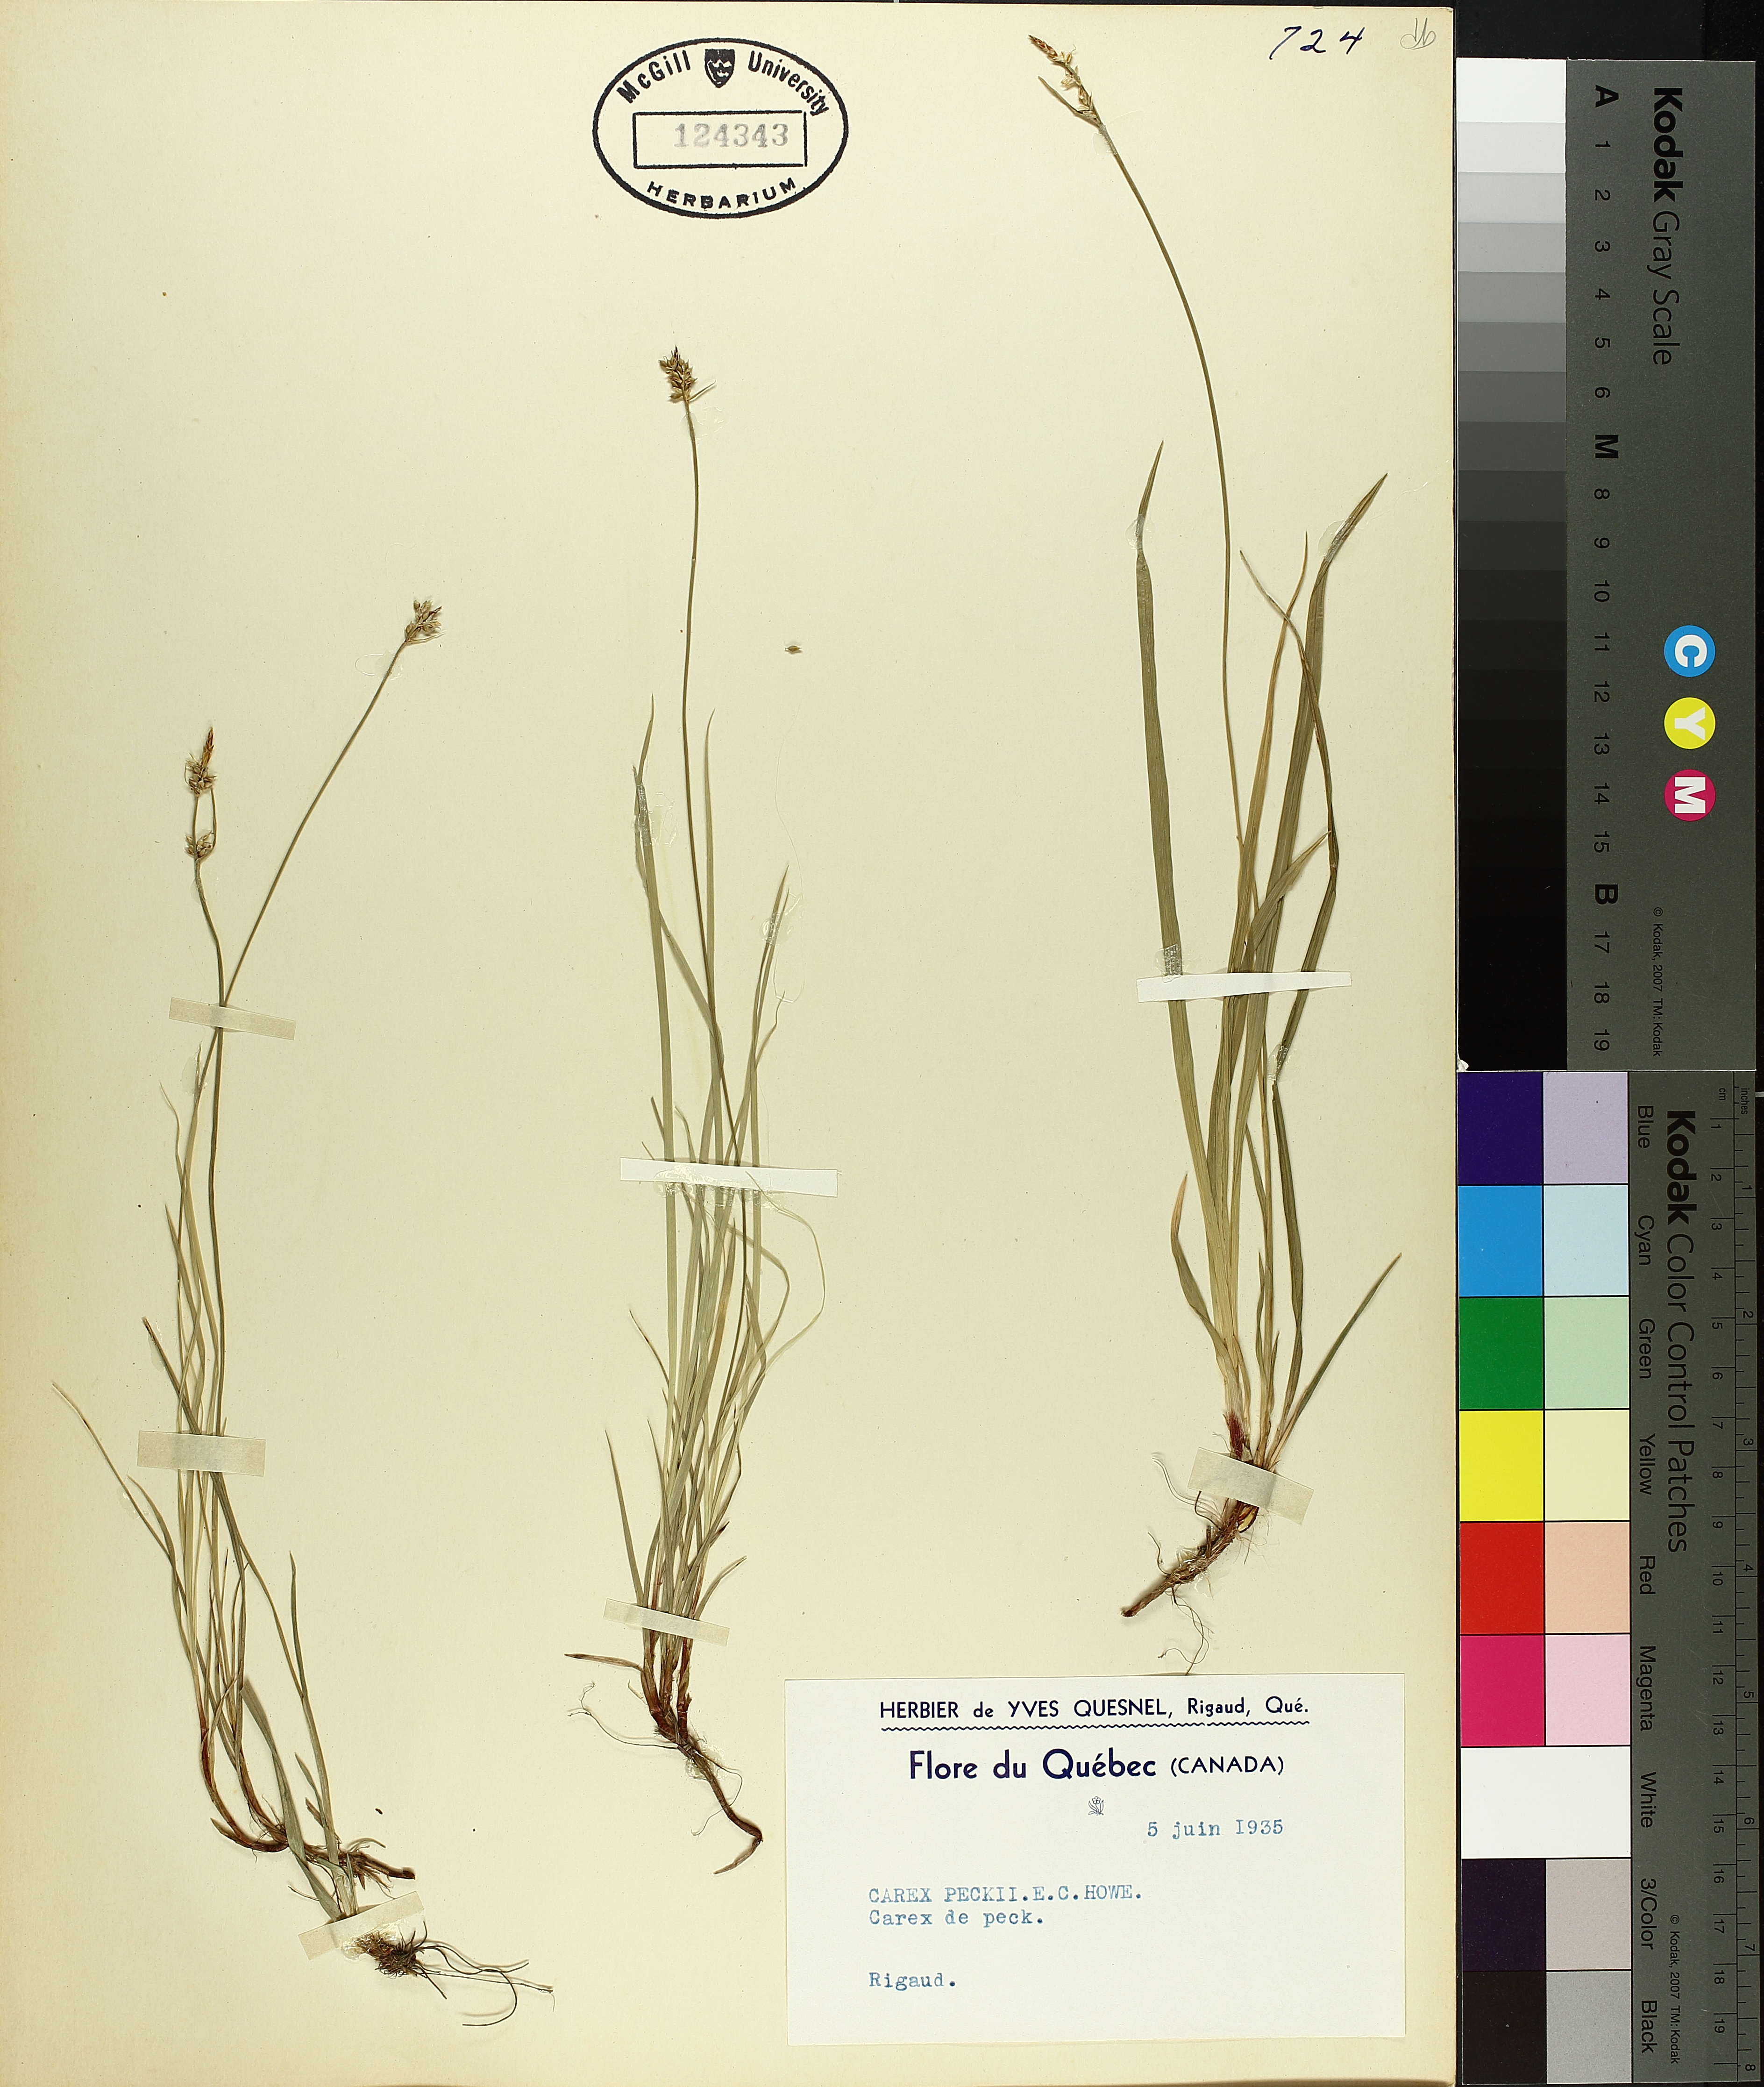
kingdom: Plantae
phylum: Tracheophyta
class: Liliopsida
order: Poales
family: Cyperaceae
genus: Carex
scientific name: Carex peckii
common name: Peck's oak sedge
